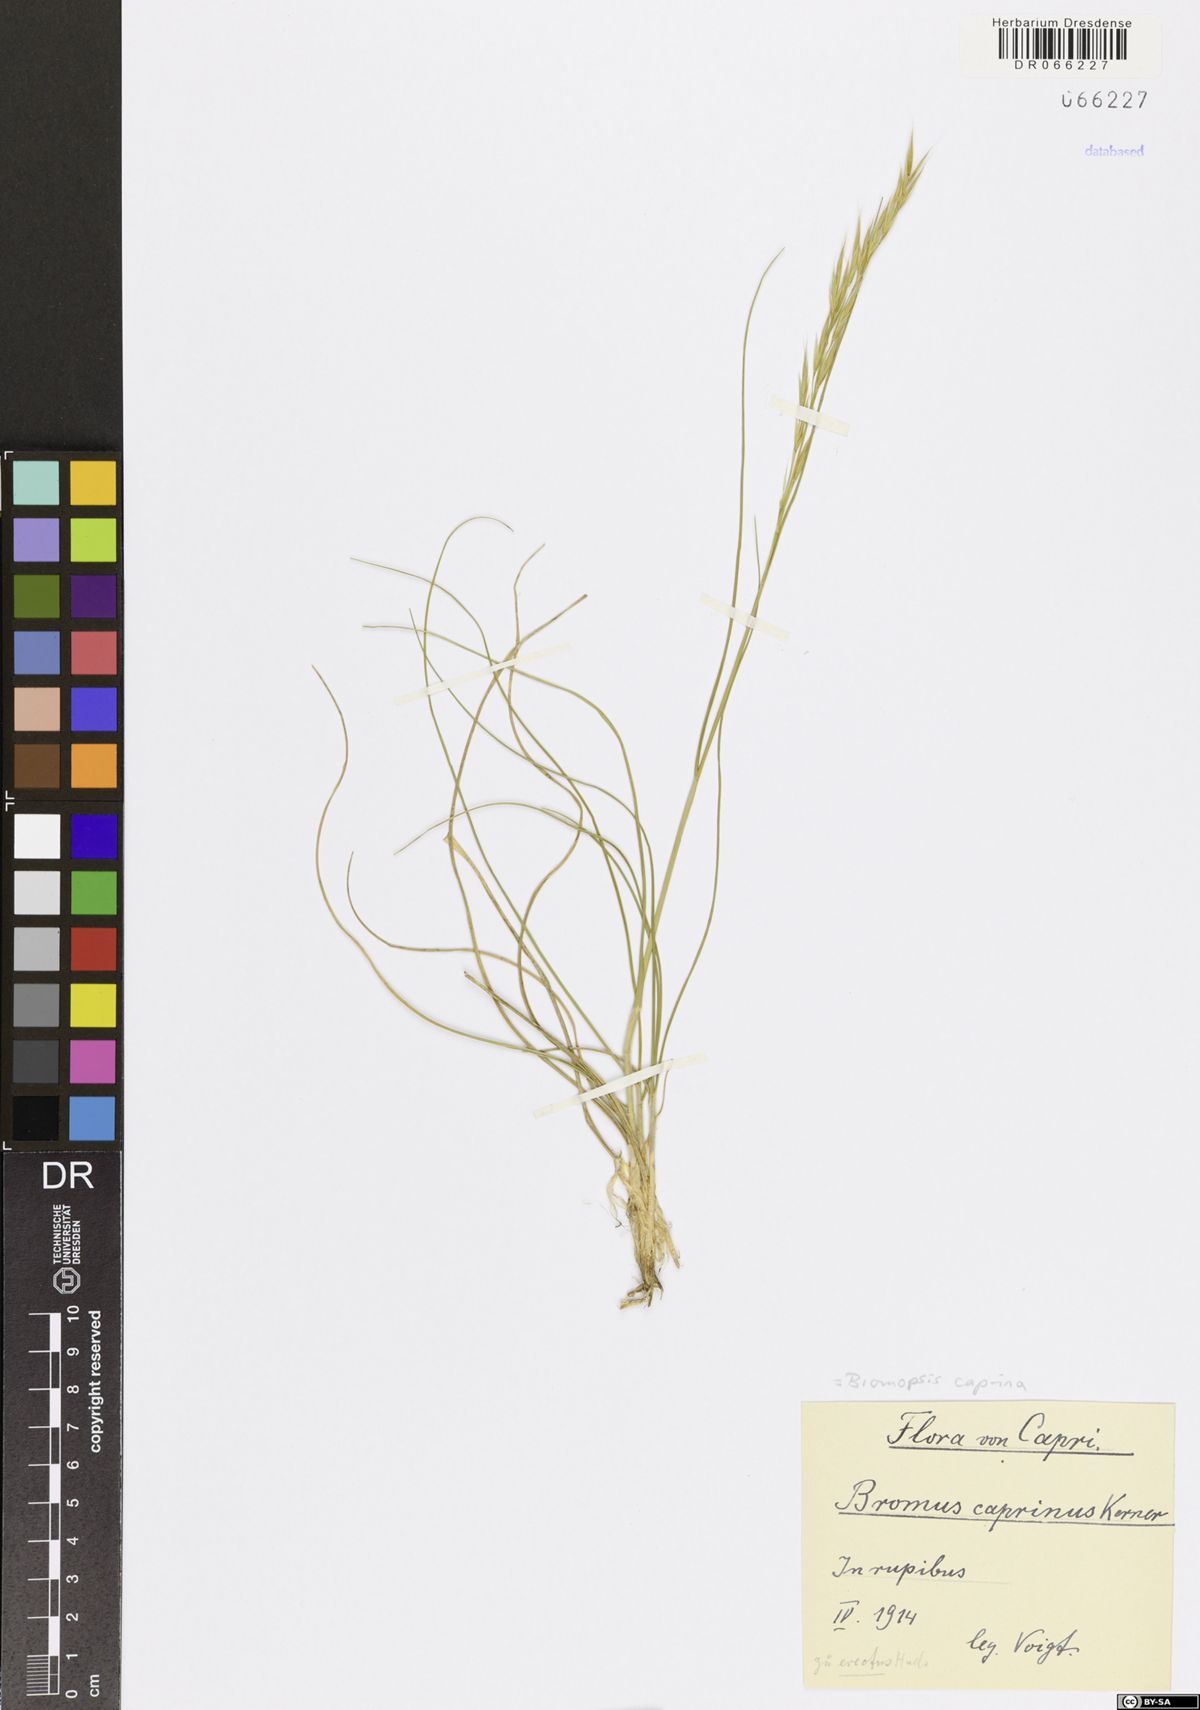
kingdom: Plantae
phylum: Tracheophyta
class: Liliopsida
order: Poales
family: Poaceae
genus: Bromus
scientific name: Bromus erectus
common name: Erect brome
